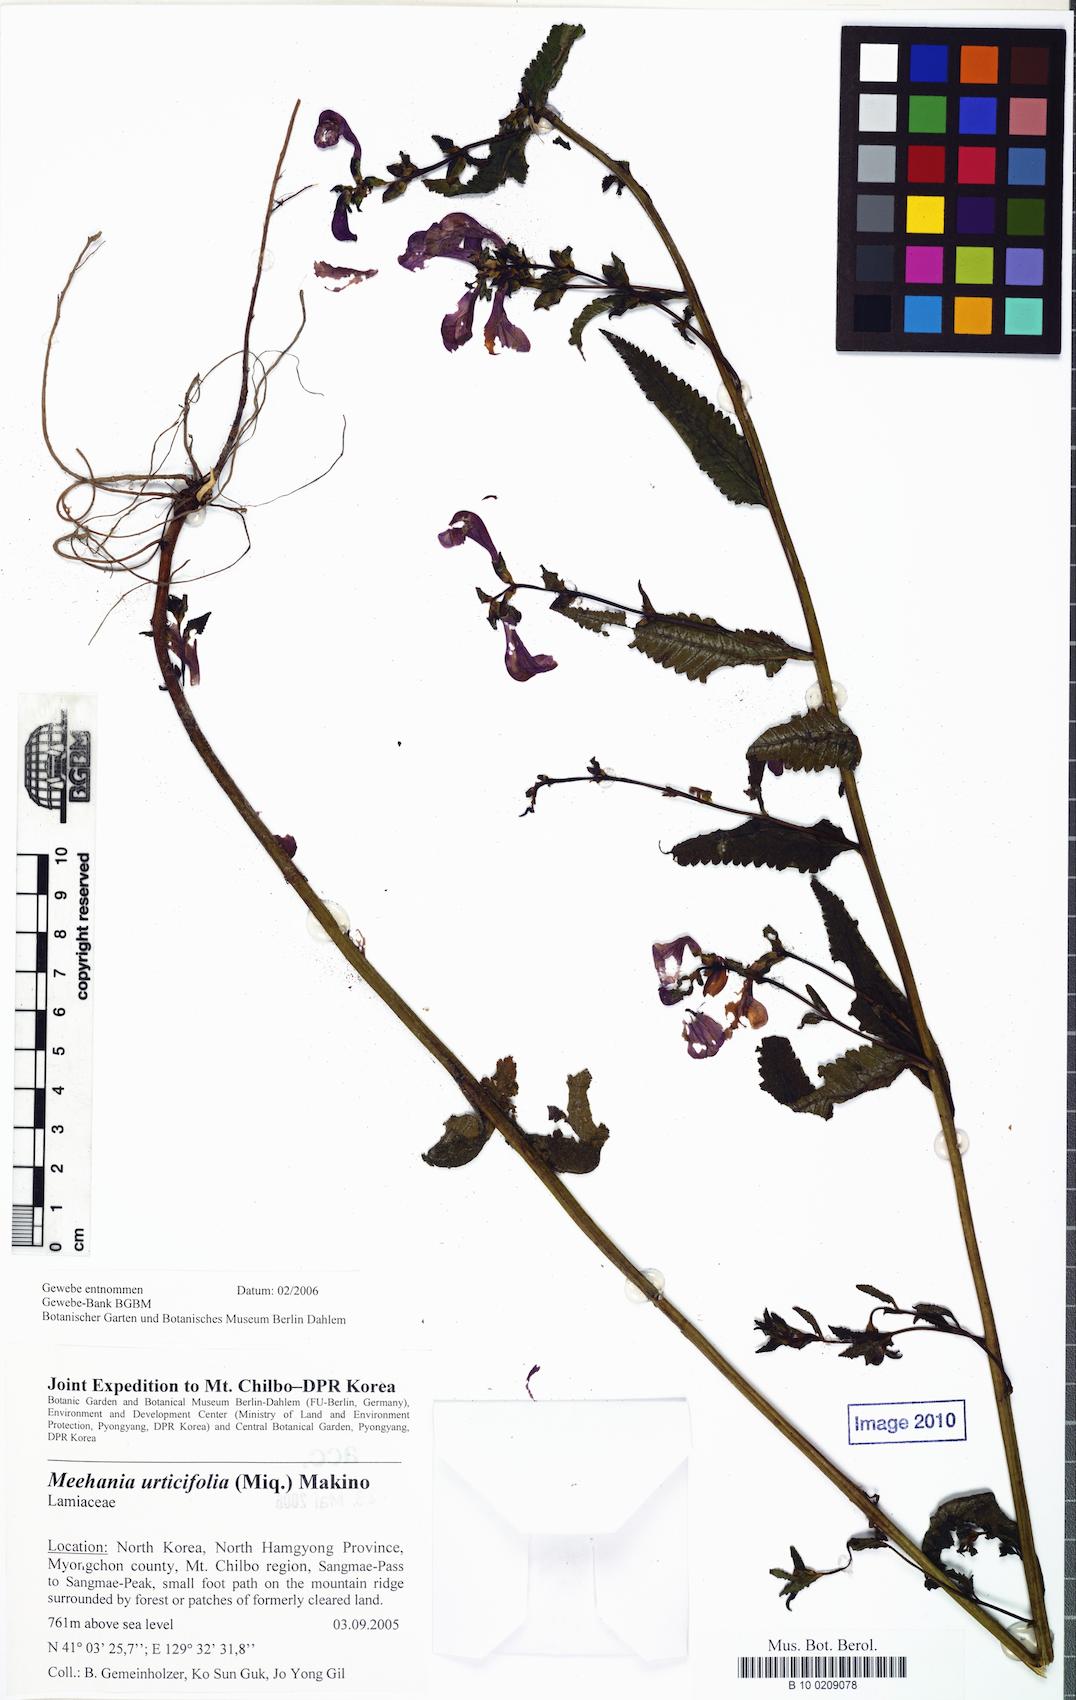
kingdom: Plantae
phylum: Tracheophyta
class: Magnoliopsida
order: Lamiales
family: Lamiaceae
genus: Meehania
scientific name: Meehania urticifolia
